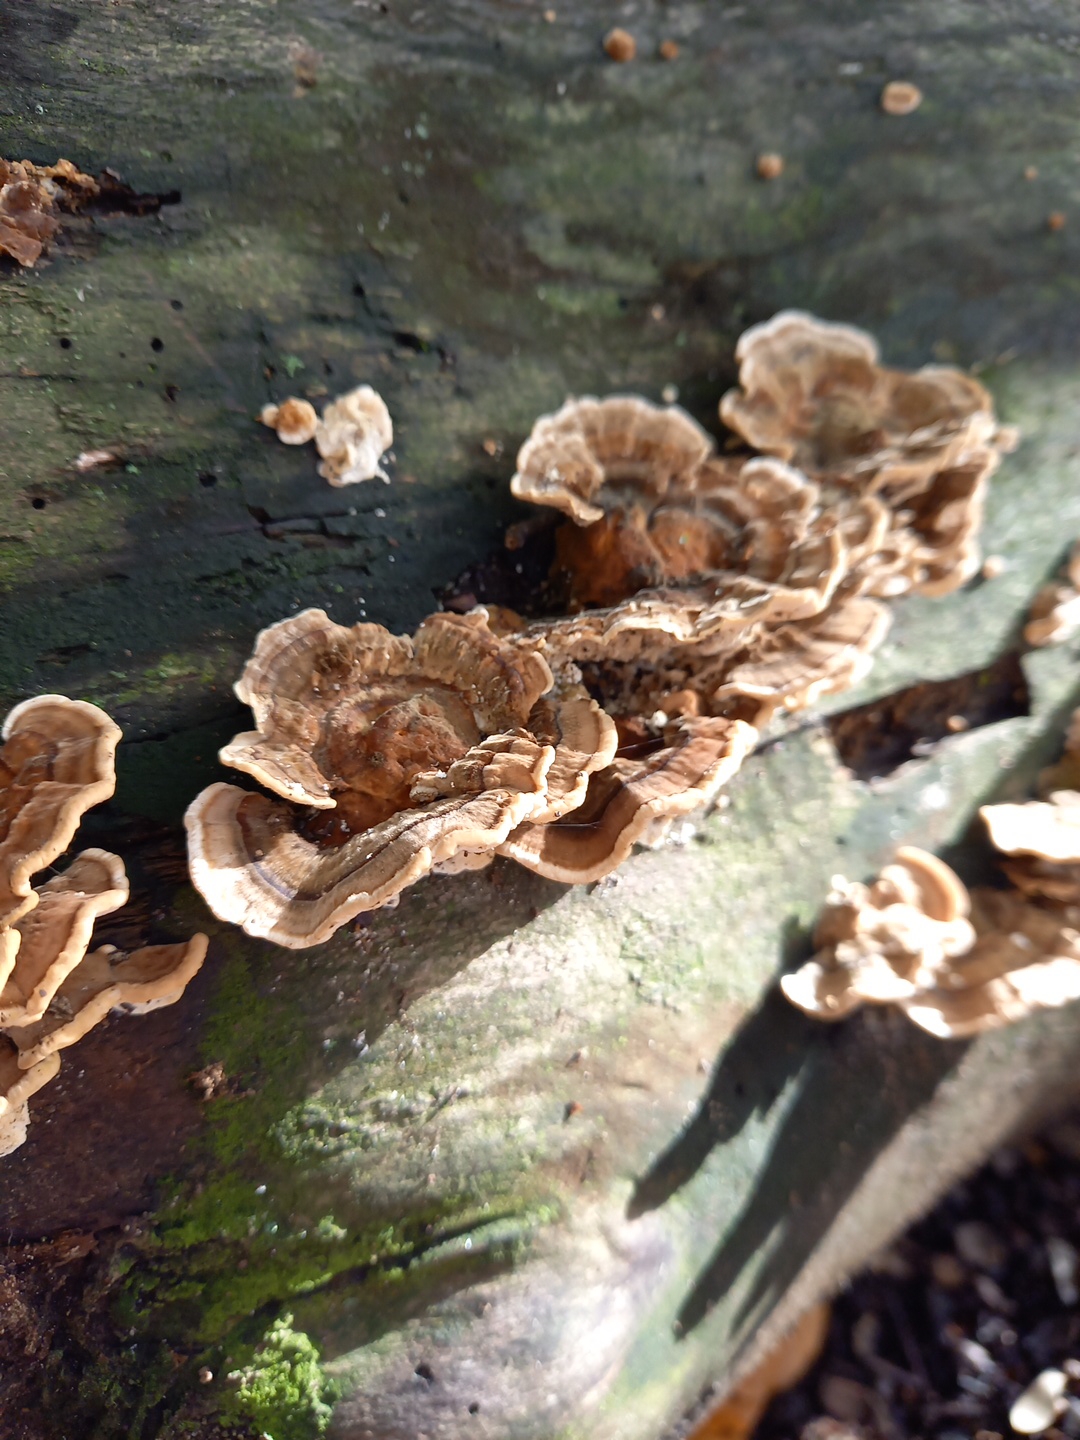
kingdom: Fungi
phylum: Basidiomycota
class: Agaricomycetes
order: Polyporales
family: Polyporaceae
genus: Trametes
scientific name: Trametes versicolor
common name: broget læderporesvamp
